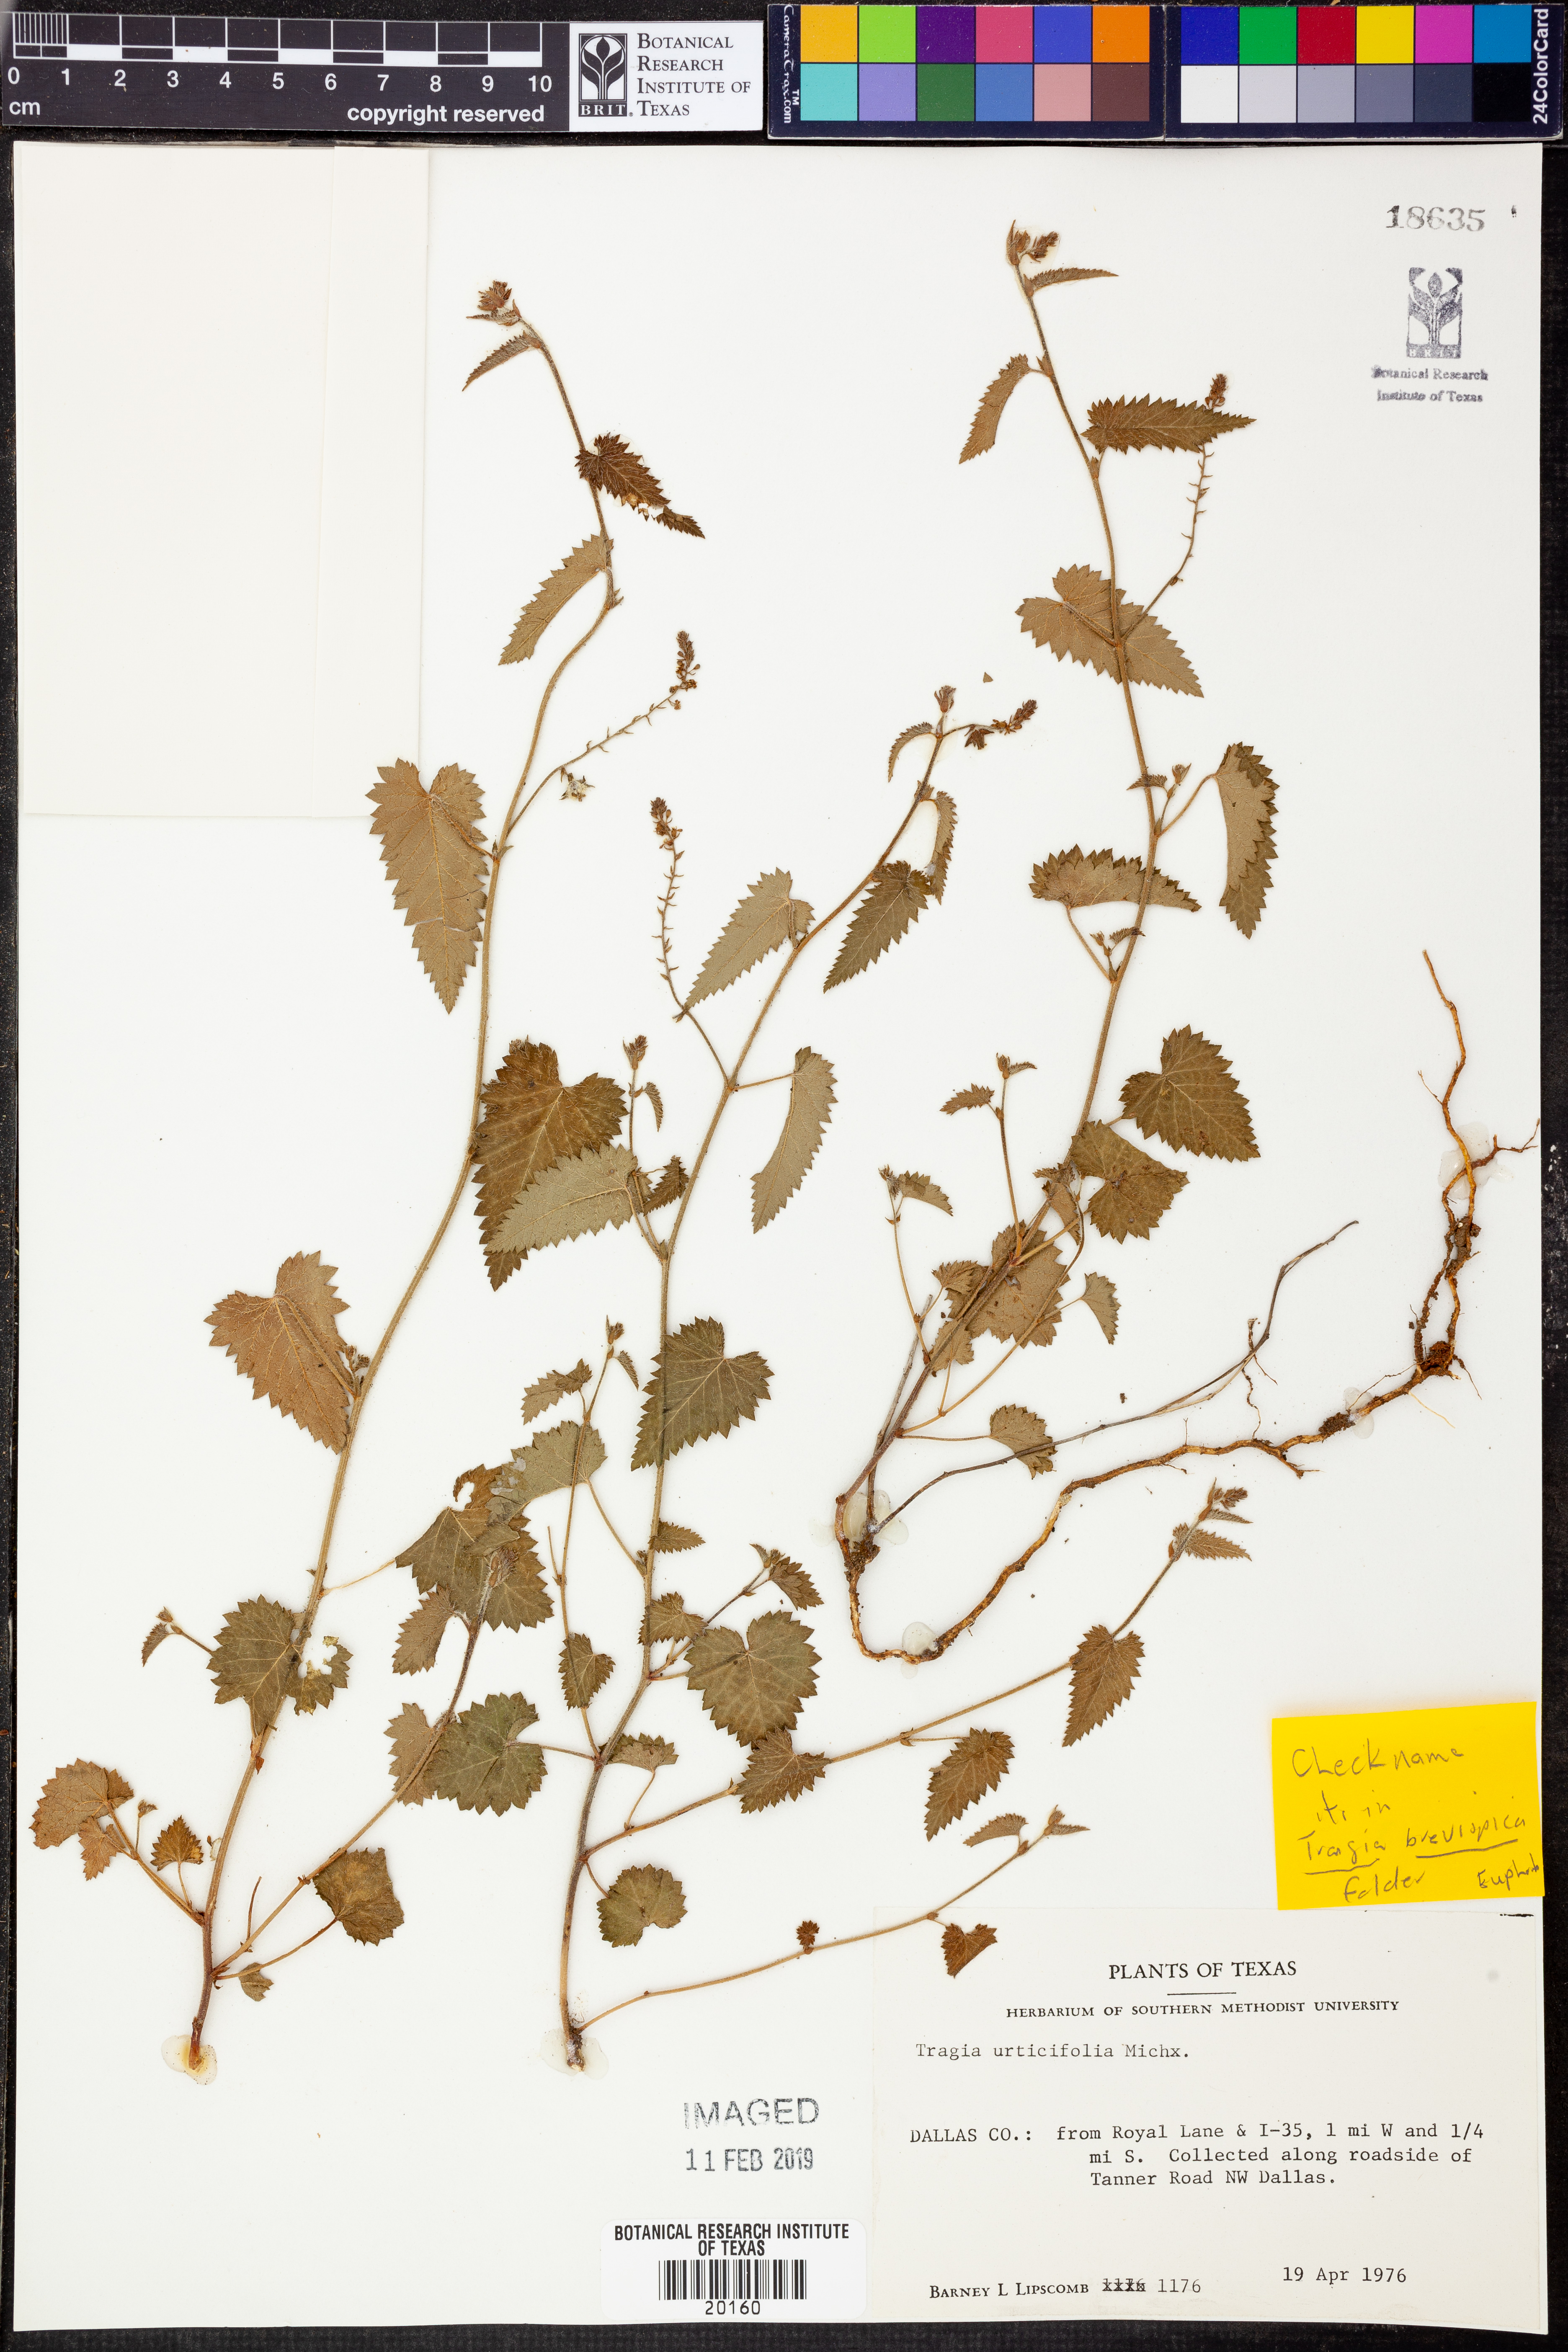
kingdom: Plantae
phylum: Tracheophyta
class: Magnoliopsida
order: Malpighiales
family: Euphorbiaceae
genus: Tragia
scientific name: Tragia urticifolia
